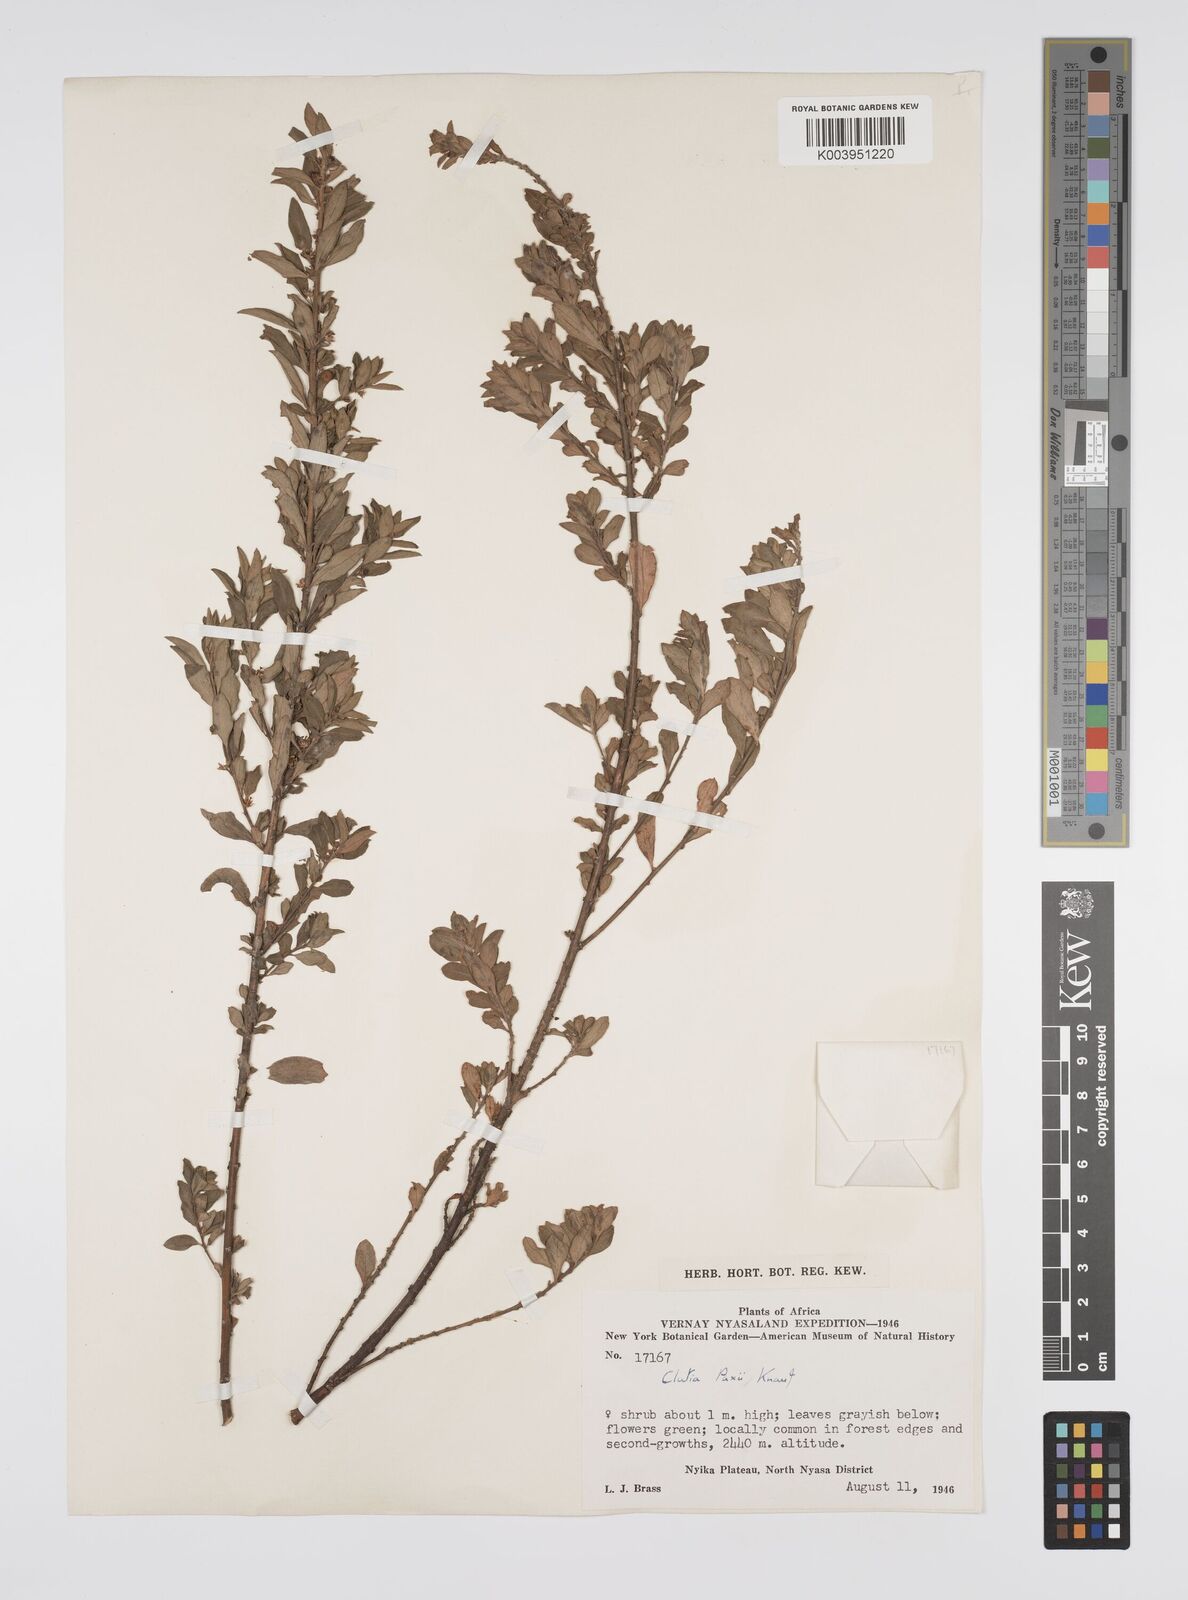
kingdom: Plantae
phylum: Tracheophyta
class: Magnoliopsida
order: Malpighiales
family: Peraceae
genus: Clutia
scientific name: Clutia paxii
